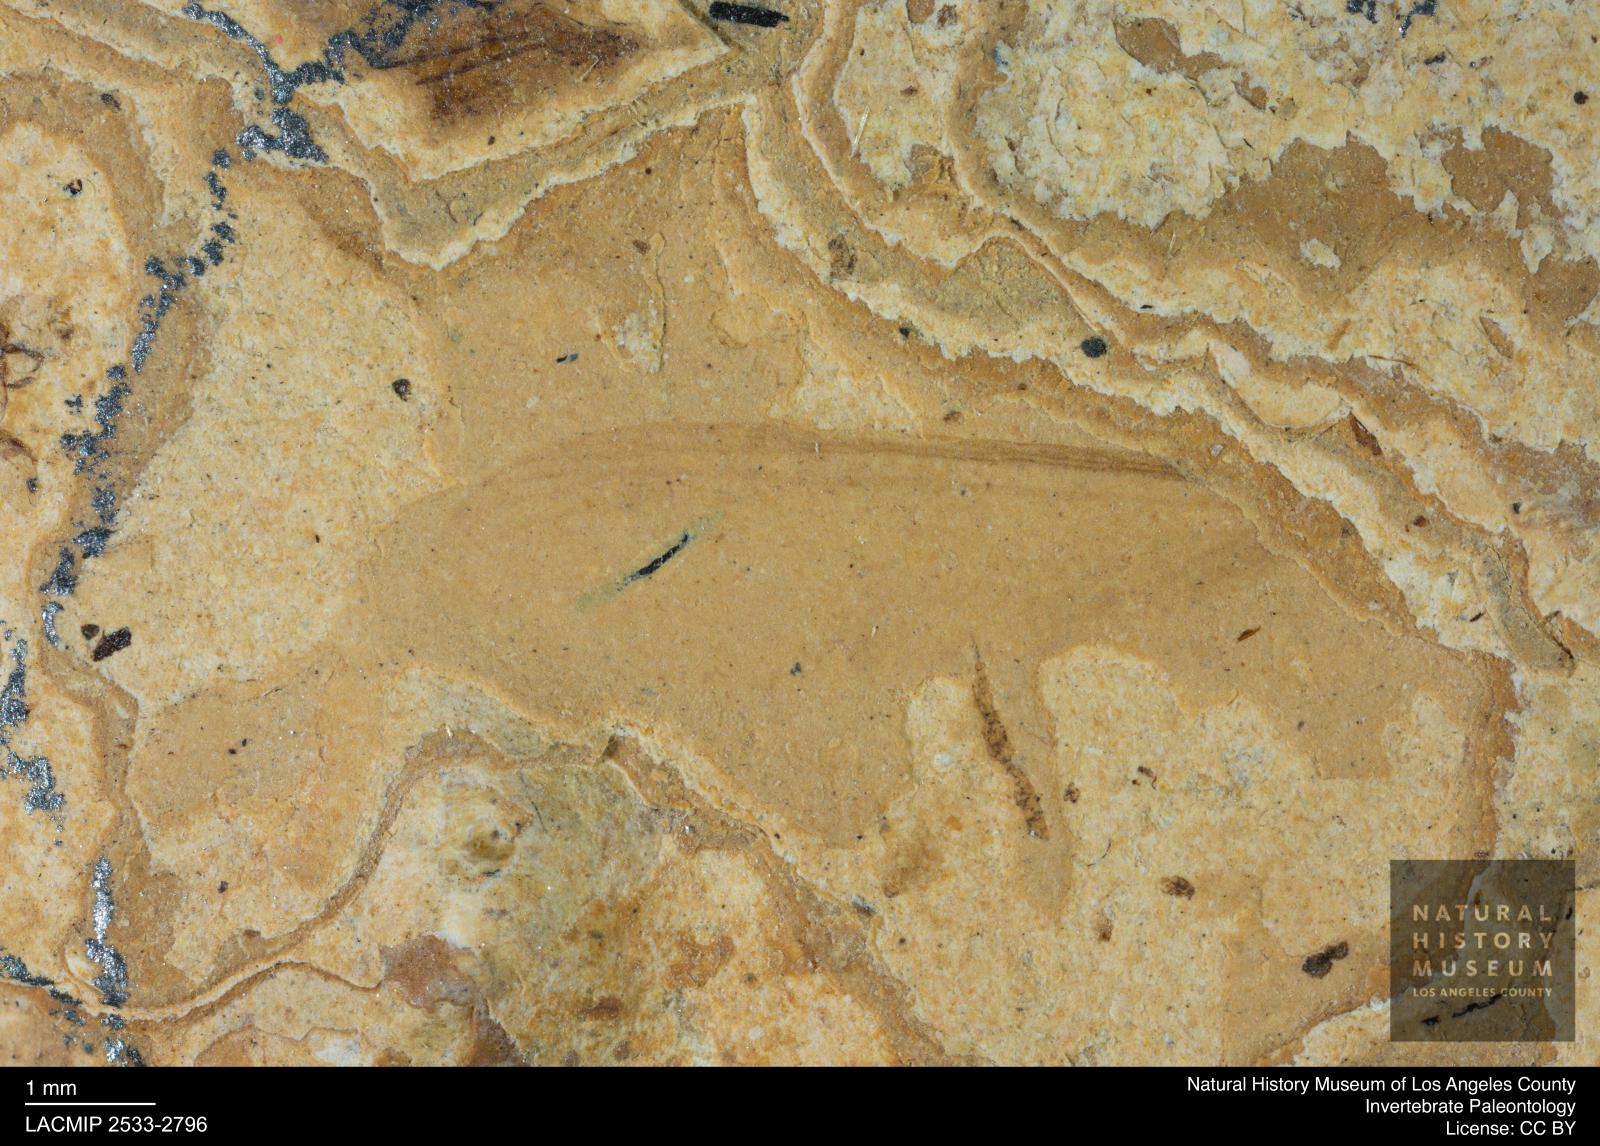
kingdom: Animalia
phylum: Arthropoda
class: Insecta
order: Blattodea
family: Kalotermitidae
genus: Kalotermes
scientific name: Kalotermes rhenanus
